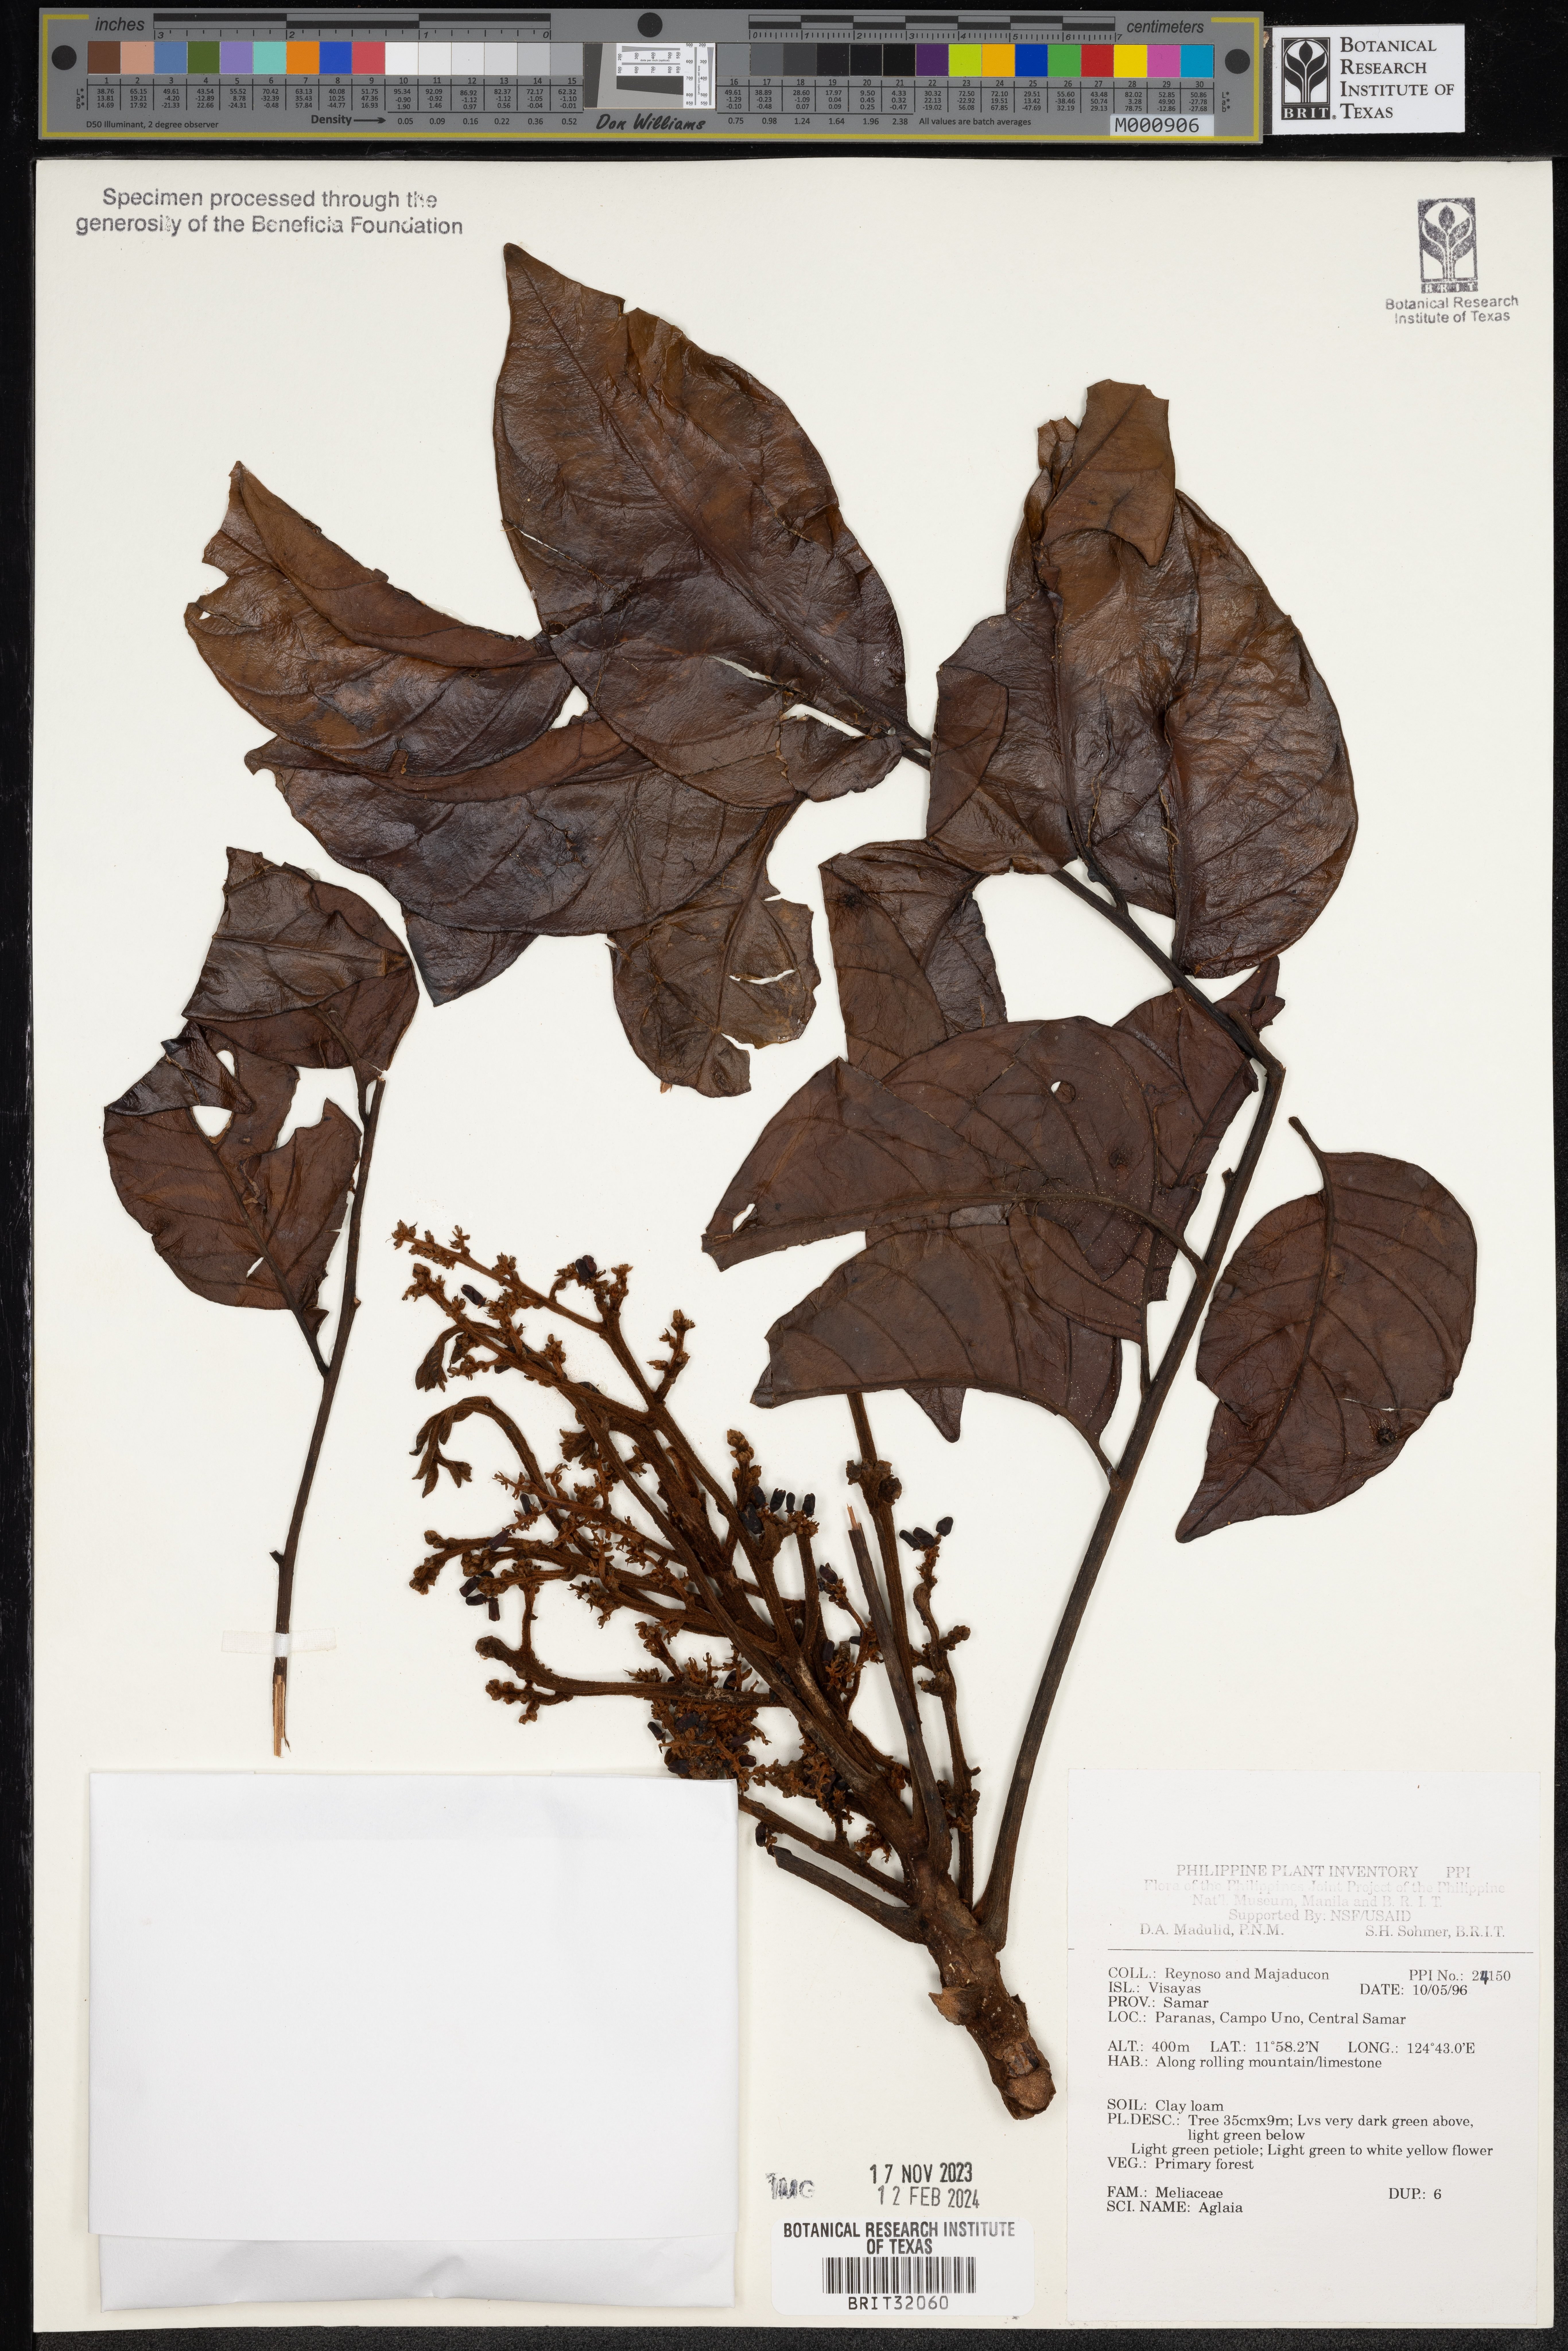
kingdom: Plantae
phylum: Tracheophyta
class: Magnoliopsida
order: Sapindales
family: Meliaceae
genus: Aglaia
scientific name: Aglaia
